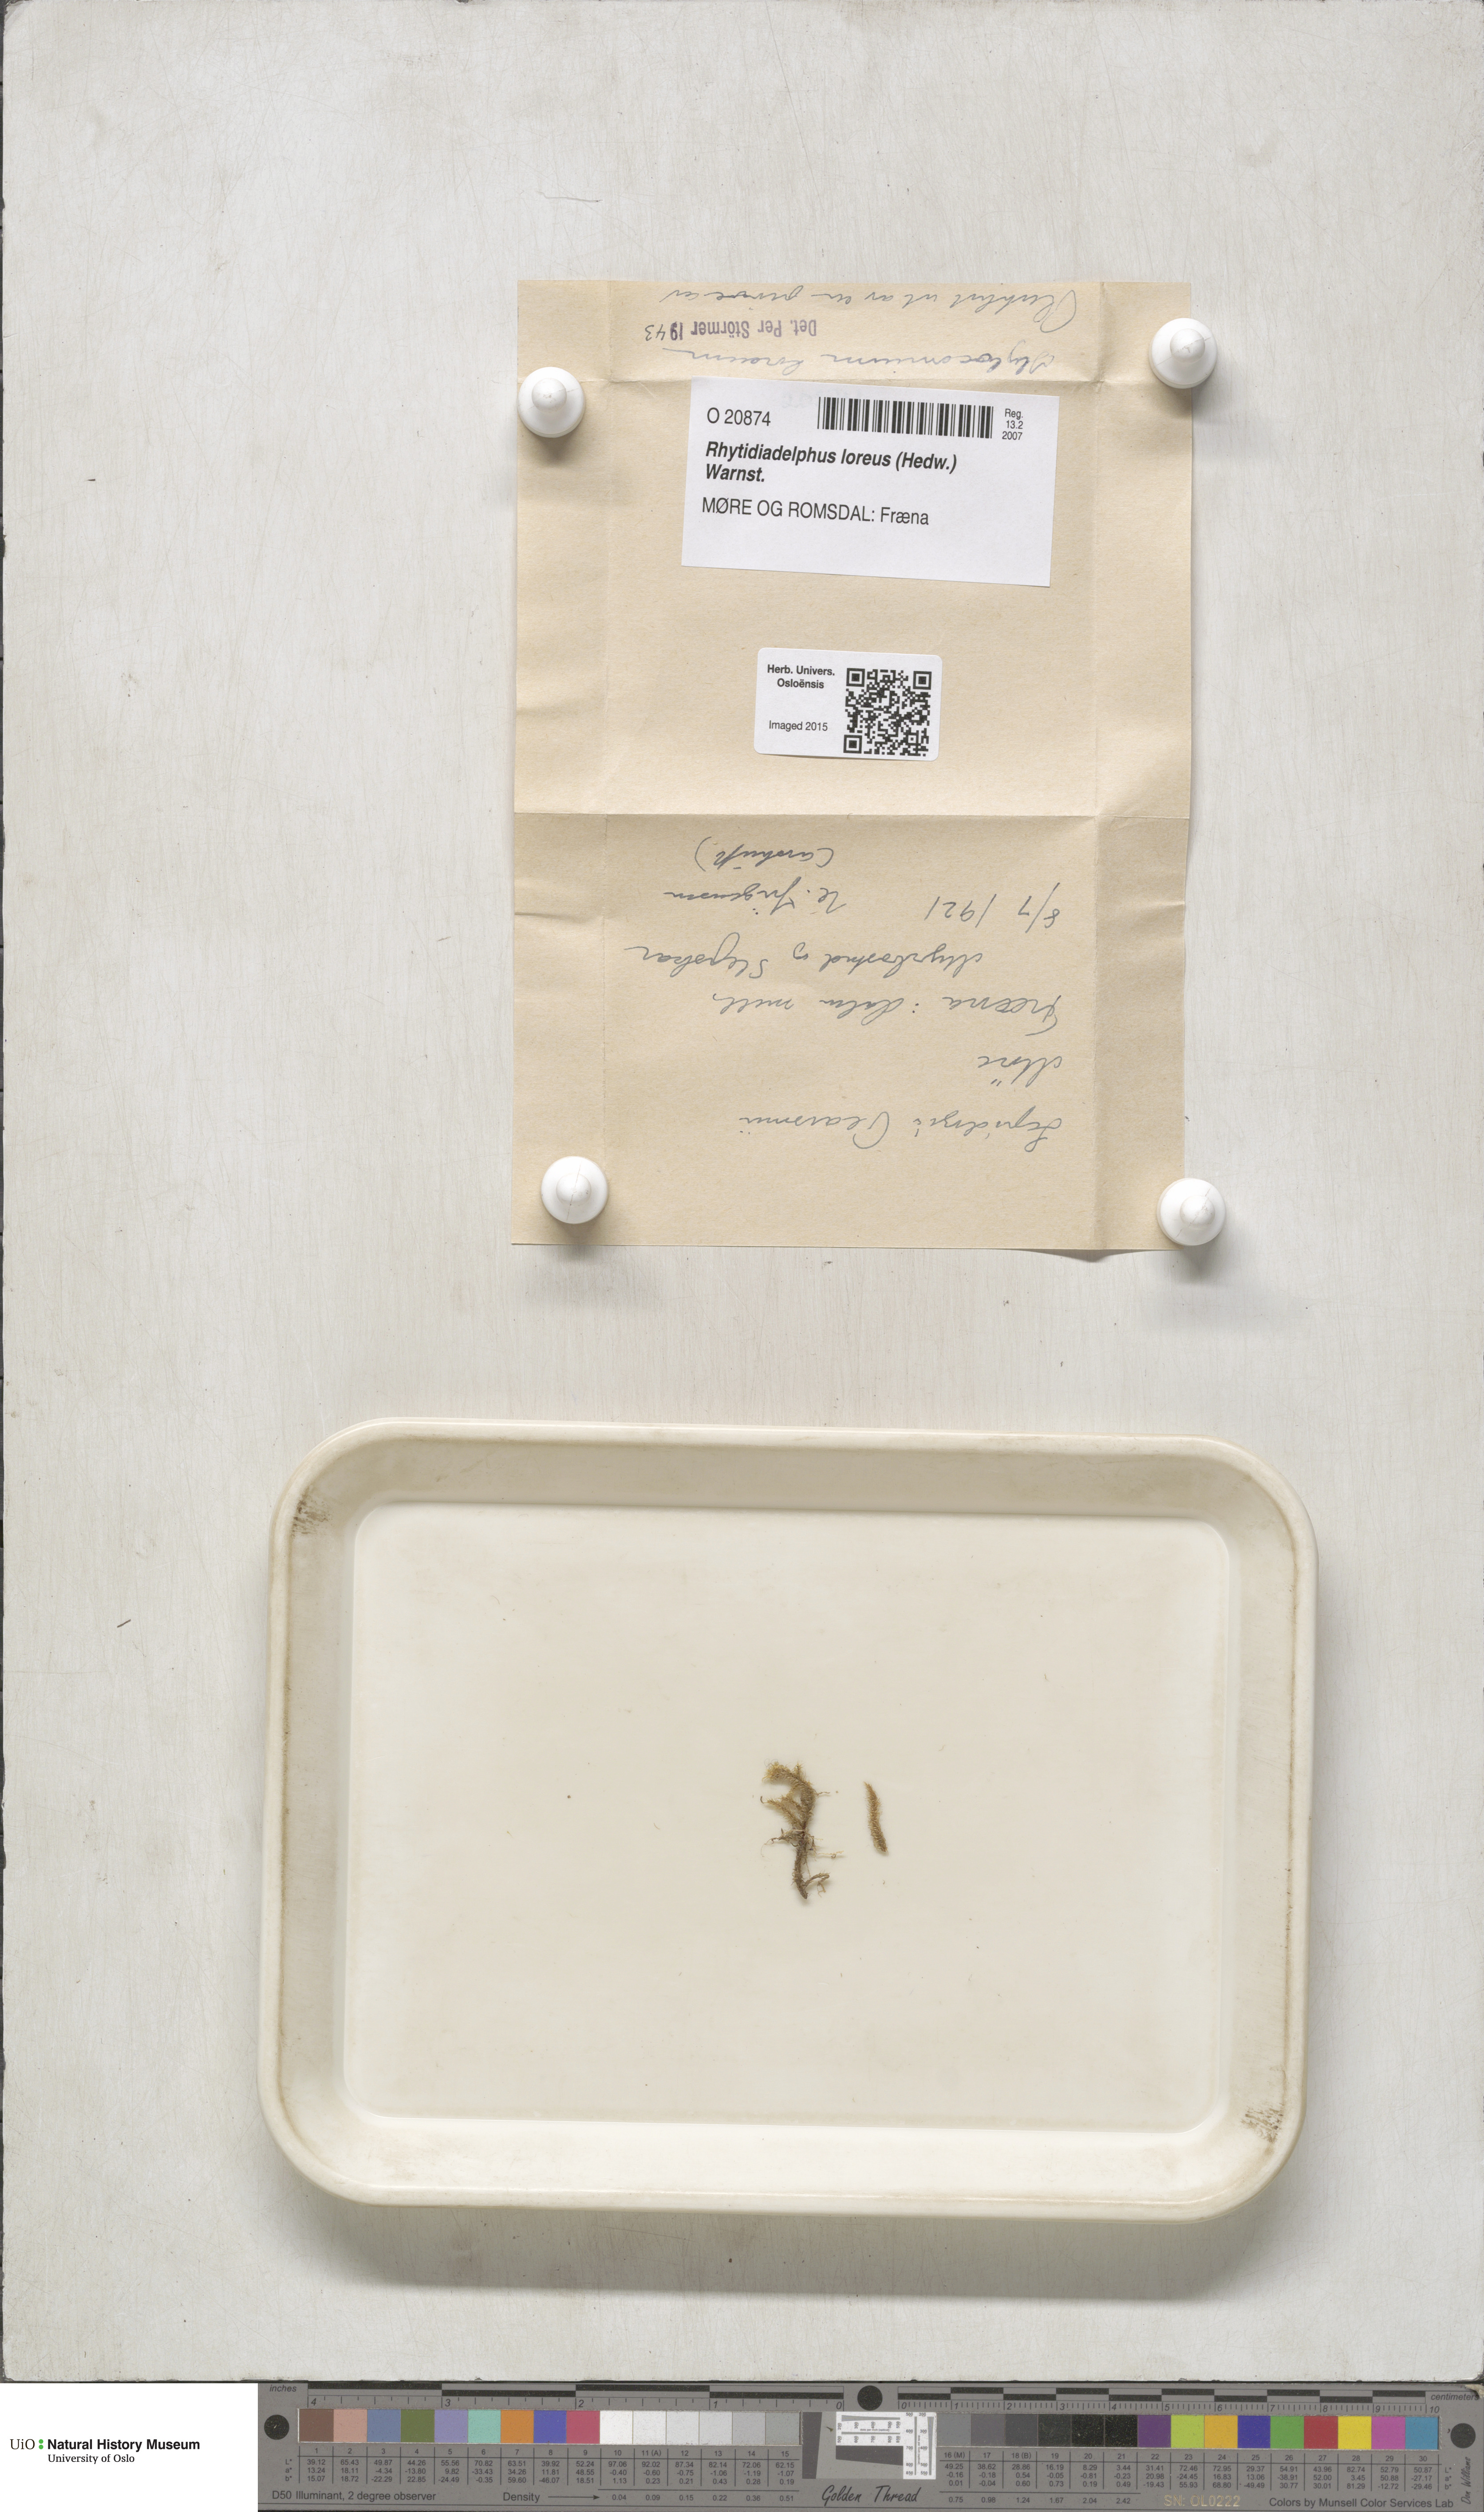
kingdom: Plantae
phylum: Bryophyta
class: Bryopsida
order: Hypnales
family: Hylocomiaceae
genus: Rhytidiadelphus
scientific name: Rhytidiadelphus loreus
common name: Lanky moss
